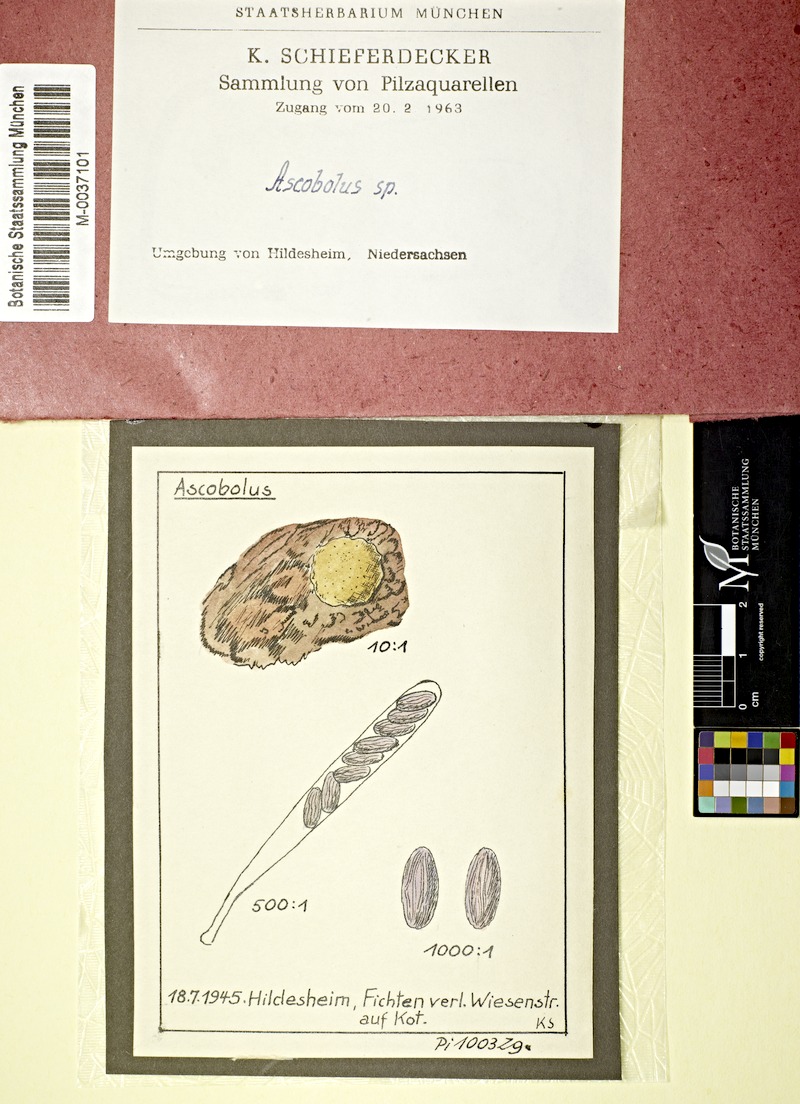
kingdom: Fungi
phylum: Ascomycota
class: Pezizomycetes
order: Pezizales
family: Ascobolaceae
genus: Ascobolus
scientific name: Ascobolus
